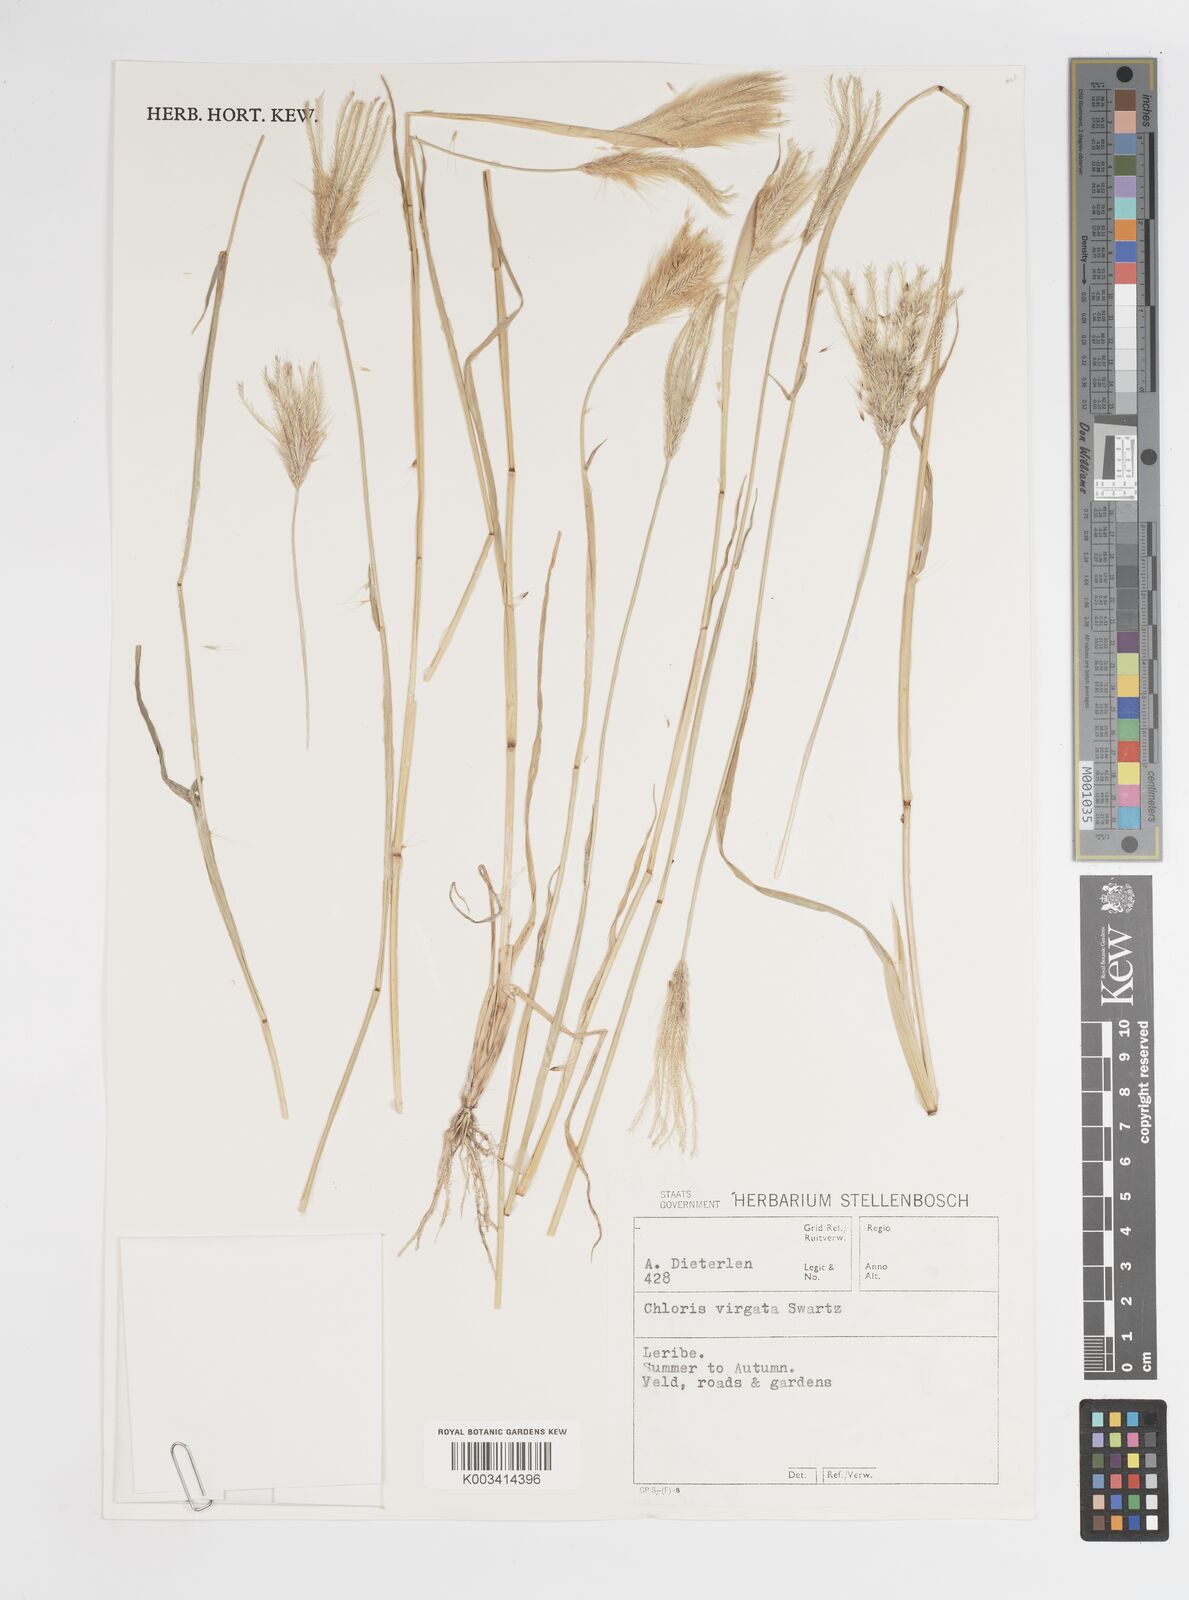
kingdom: Plantae
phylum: Tracheophyta
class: Liliopsida
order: Poales
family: Poaceae
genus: Chloris
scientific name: Chloris virgata
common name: Feathery rhodes-grass
